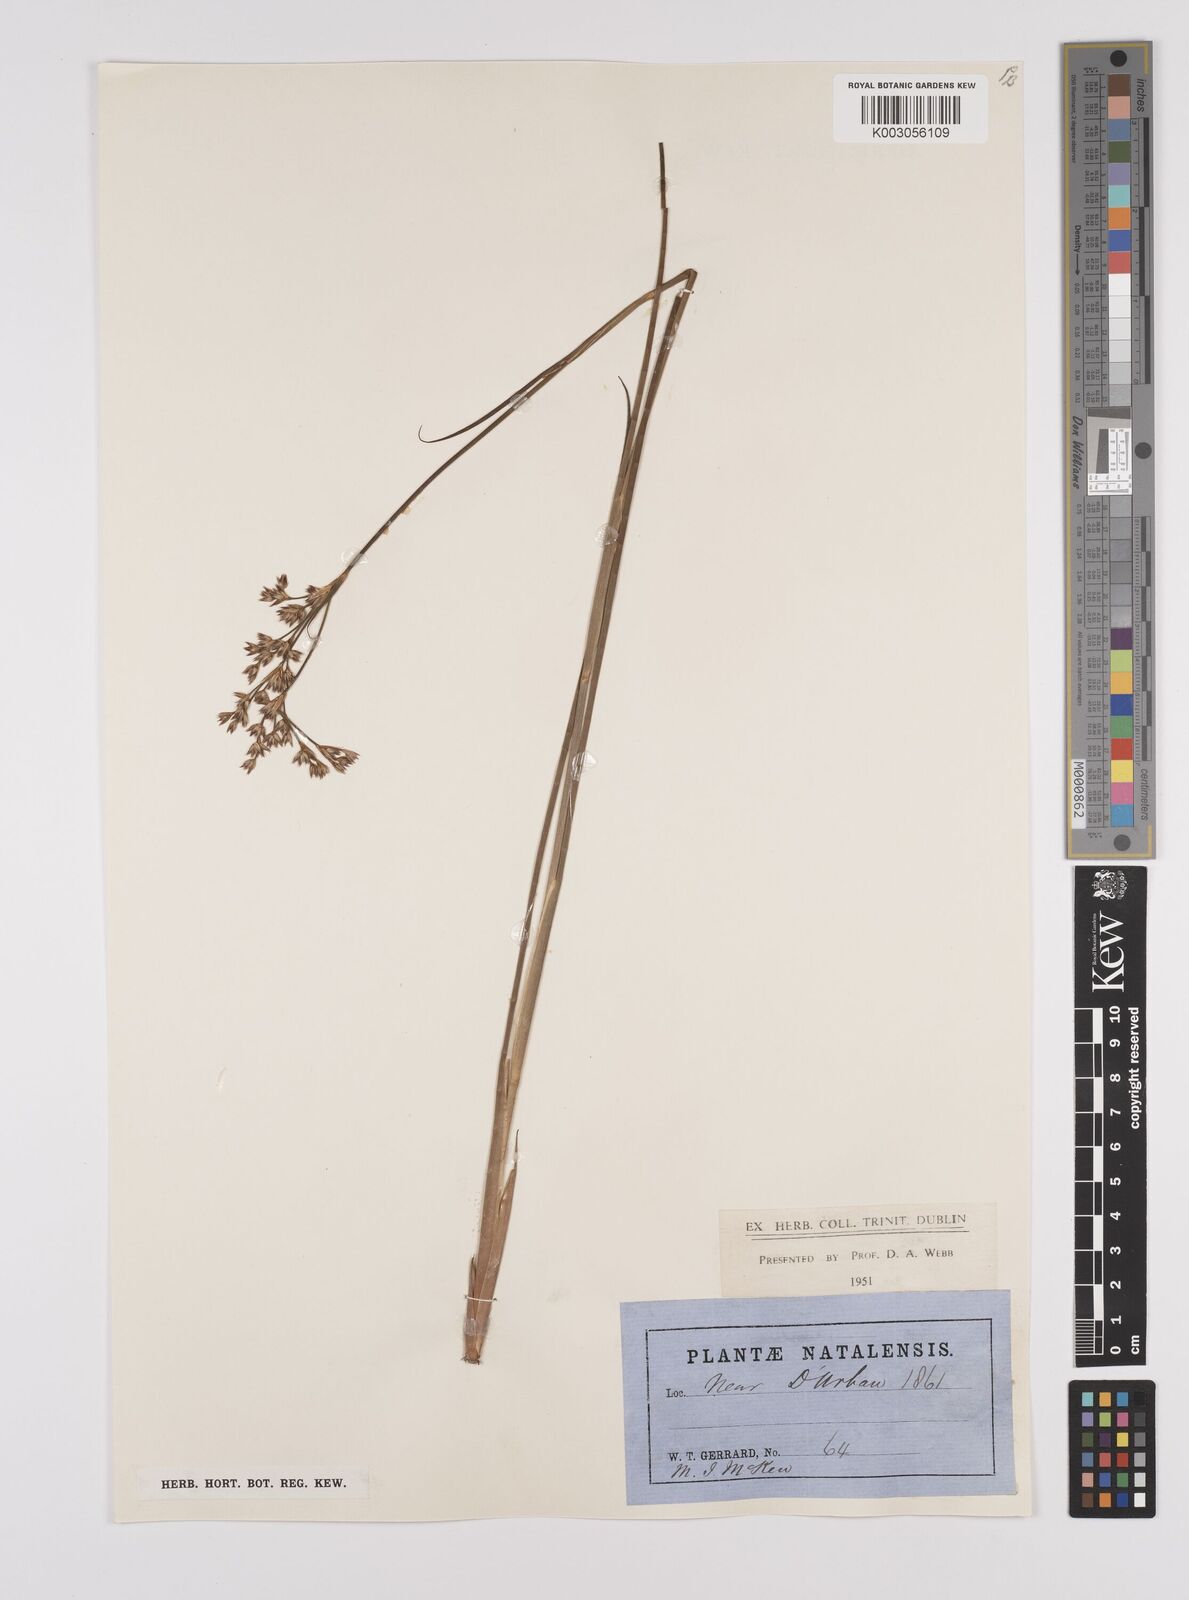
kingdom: Plantae
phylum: Tracheophyta
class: Liliopsida
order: Poales
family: Juncaceae
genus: Juncus
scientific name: Juncus
